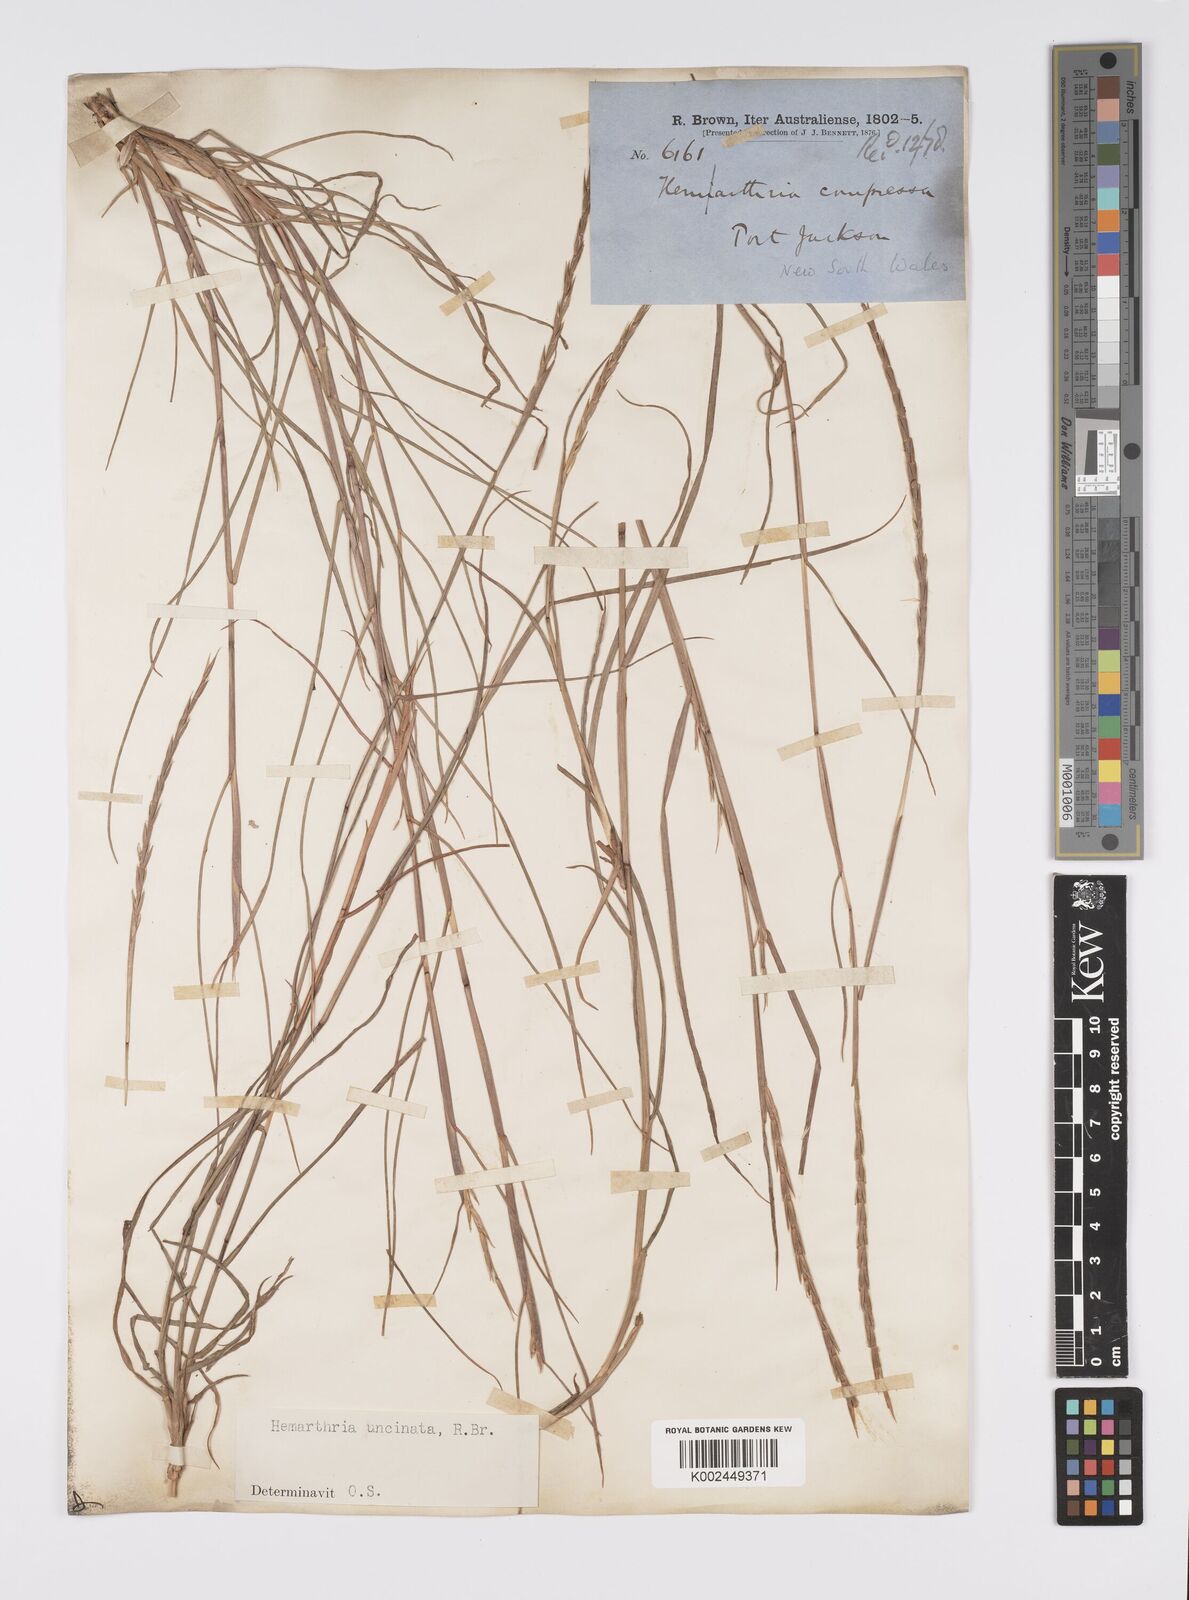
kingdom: Plantae
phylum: Tracheophyta
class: Liliopsida
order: Poales
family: Poaceae
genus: Hemarthria
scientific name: Hemarthria uncinata
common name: Matgrass
